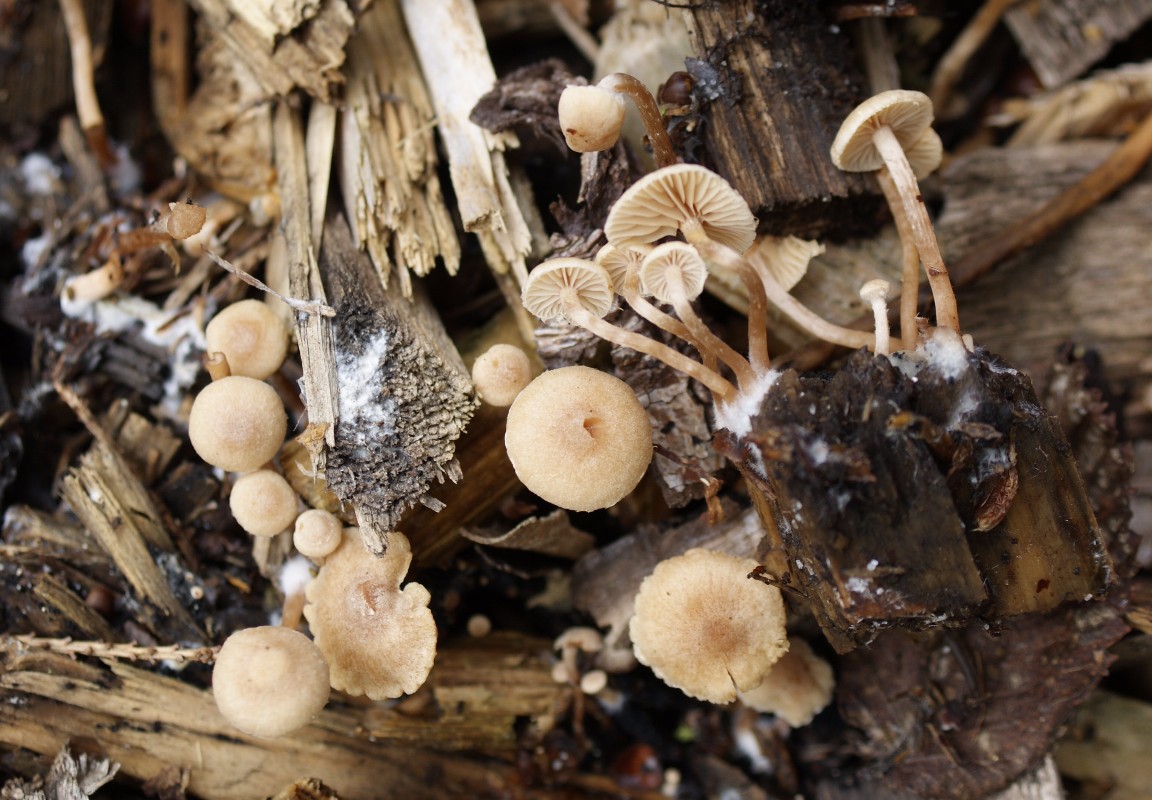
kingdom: Fungi
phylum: Basidiomycota
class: Agaricomycetes
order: Agaricales
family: Tubariaceae
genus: Tubaria
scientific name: Tubaria conspersa
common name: bleg fnughat
